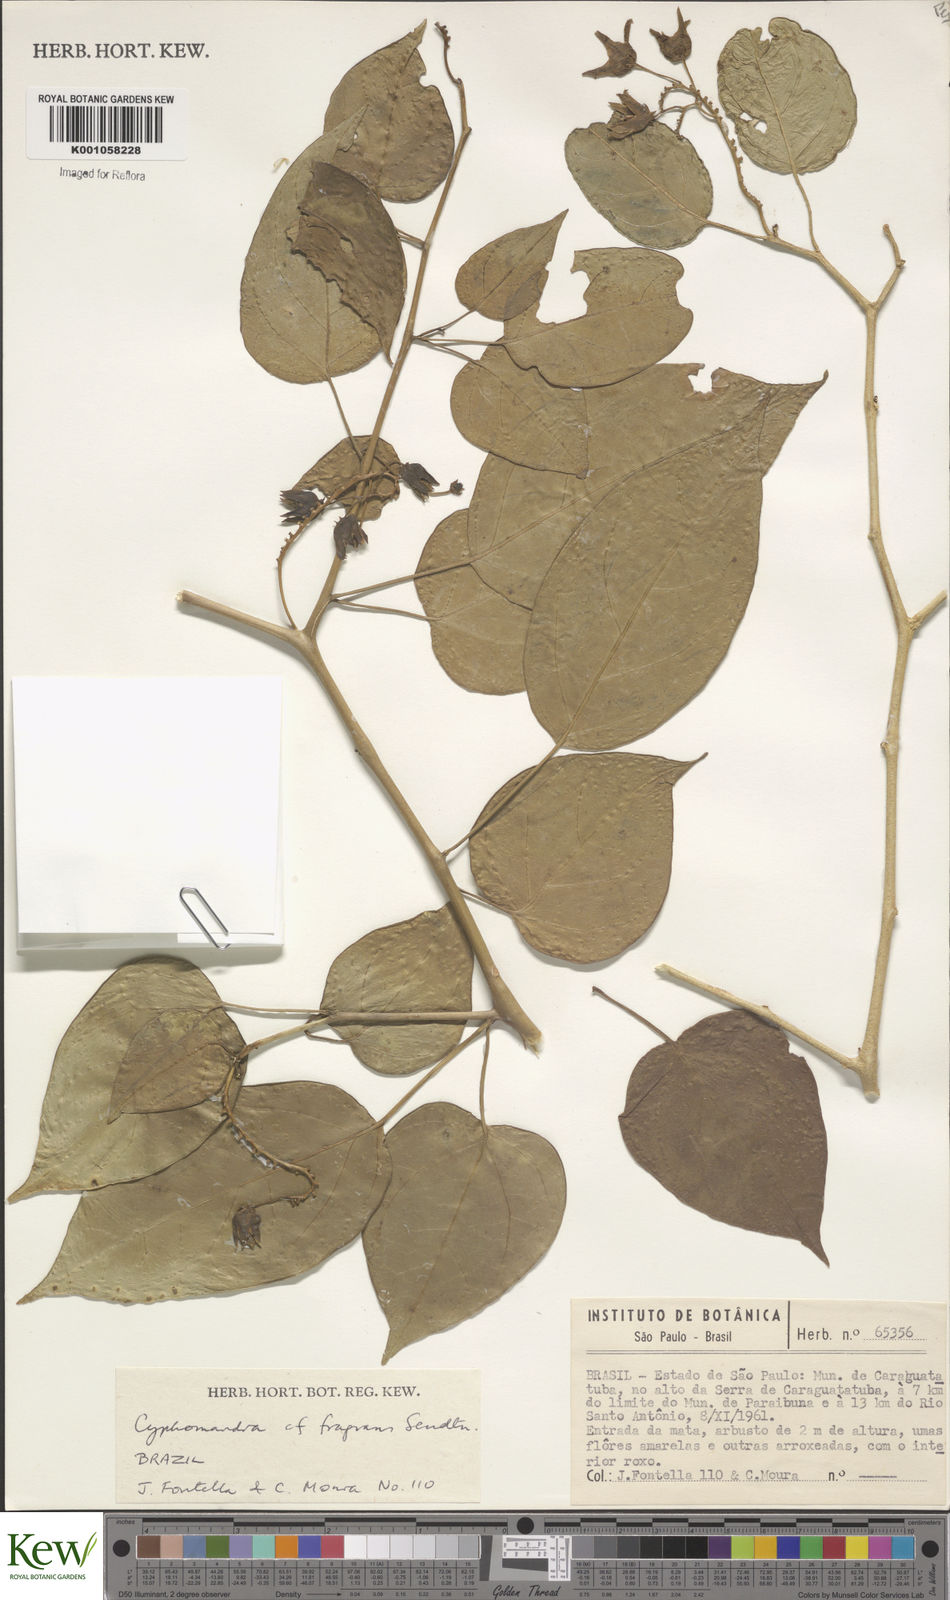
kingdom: Plantae
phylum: Tracheophyta
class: Magnoliopsida
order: Solanales
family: Solanaceae
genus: Solanum
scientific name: Solanum diploconos
